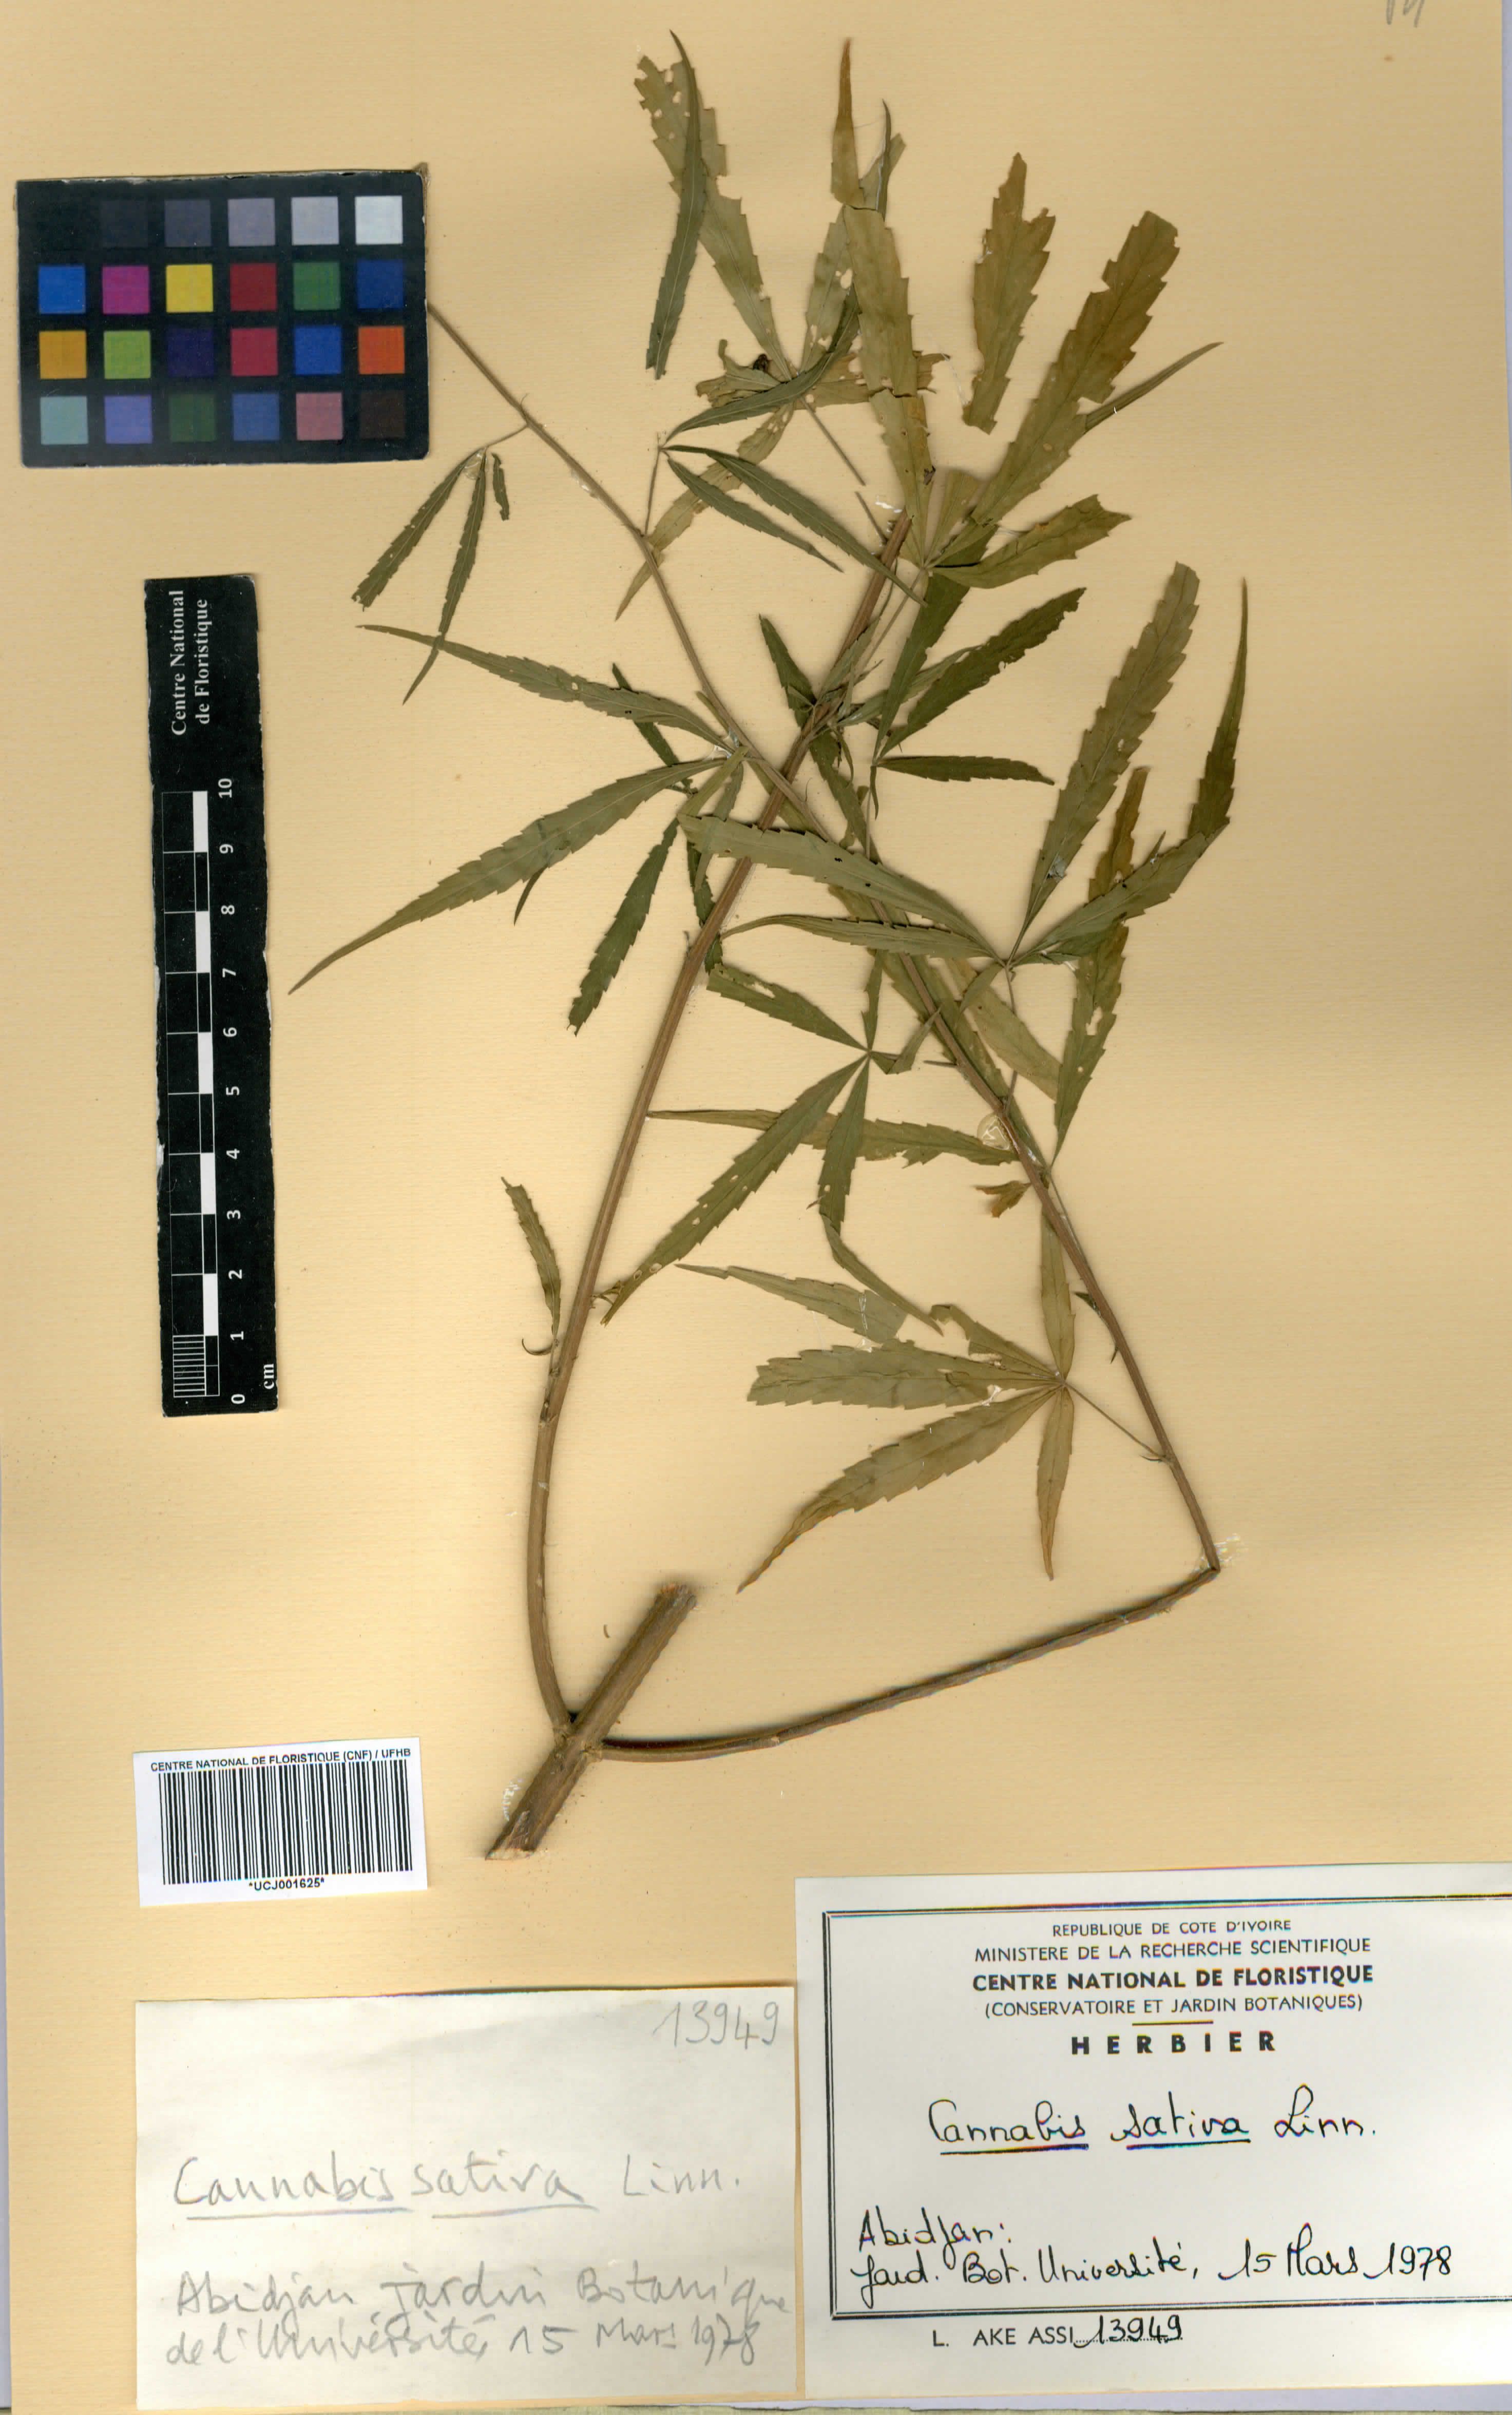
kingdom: Plantae
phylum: Tracheophyta
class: Magnoliopsida
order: Rosales
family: Cannabaceae
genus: Cannabis
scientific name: Cannabis sativa
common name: Hemp
